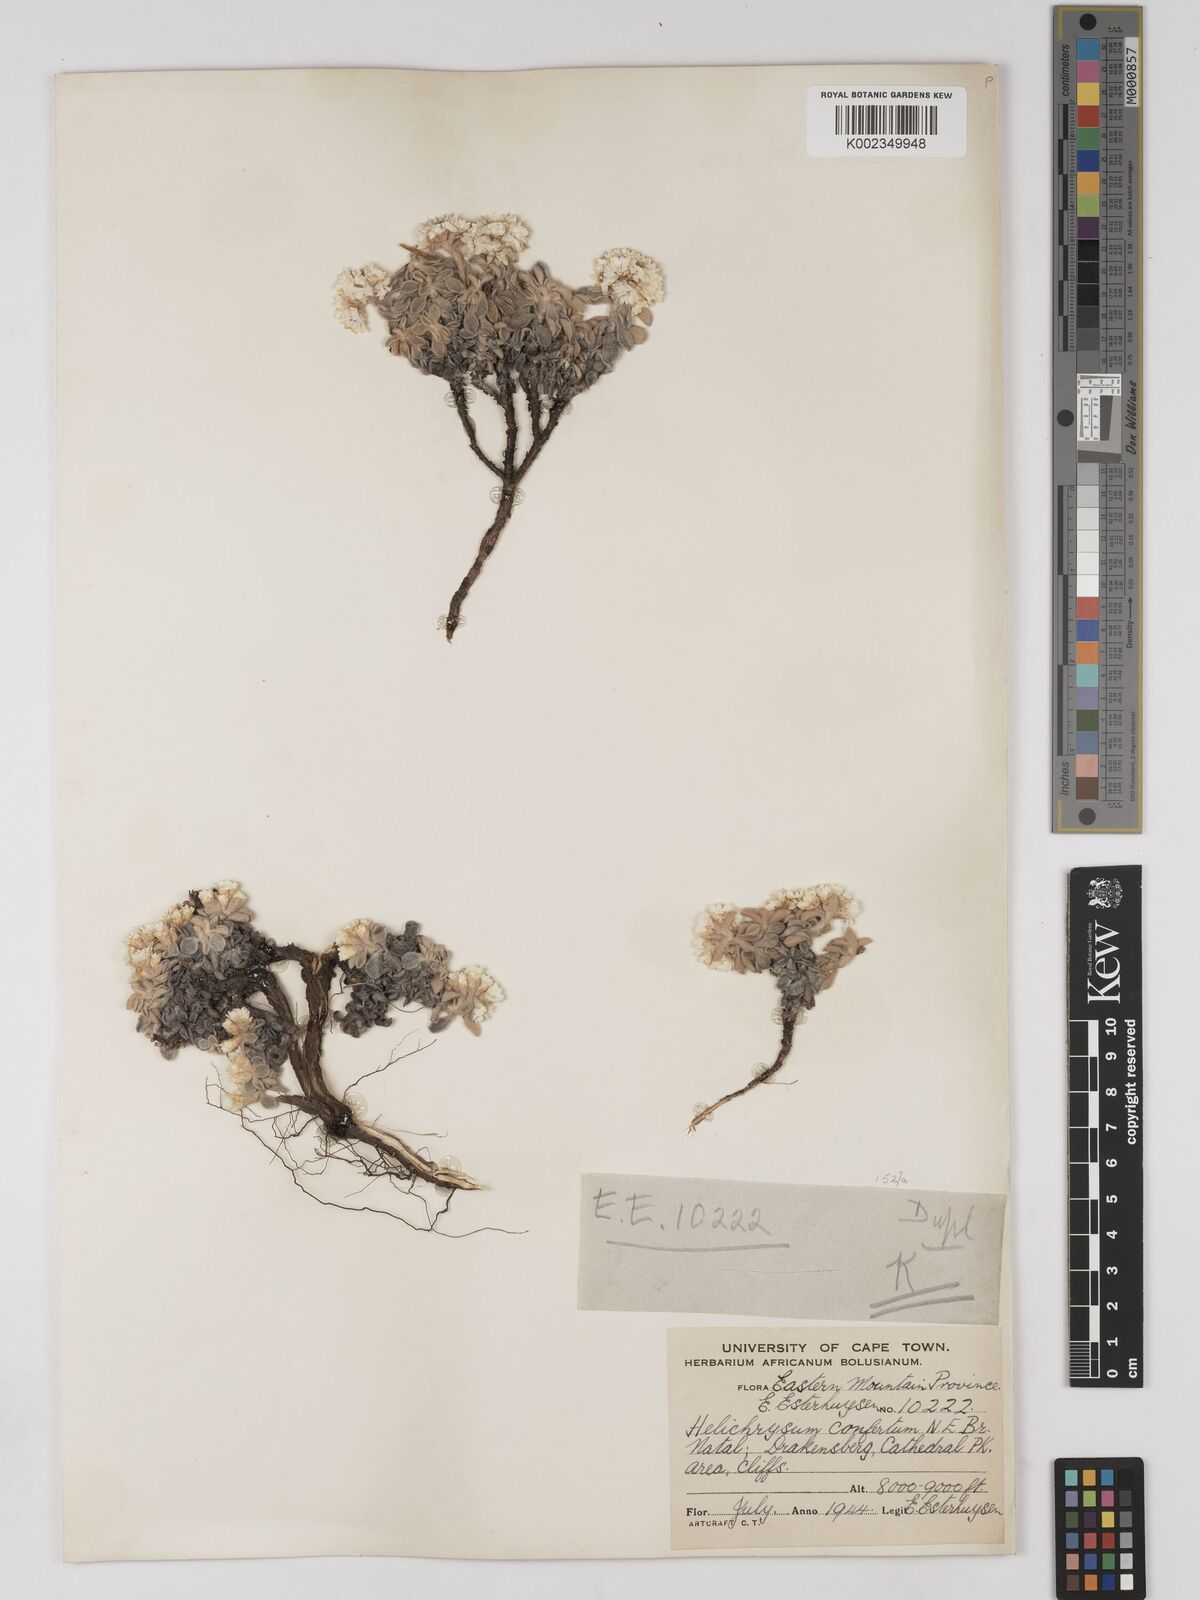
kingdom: Plantae
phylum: Tracheophyta
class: Magnoliopsida
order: Asterales
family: Asteraceae
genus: Helichrysum
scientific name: Helichrysum confertum
